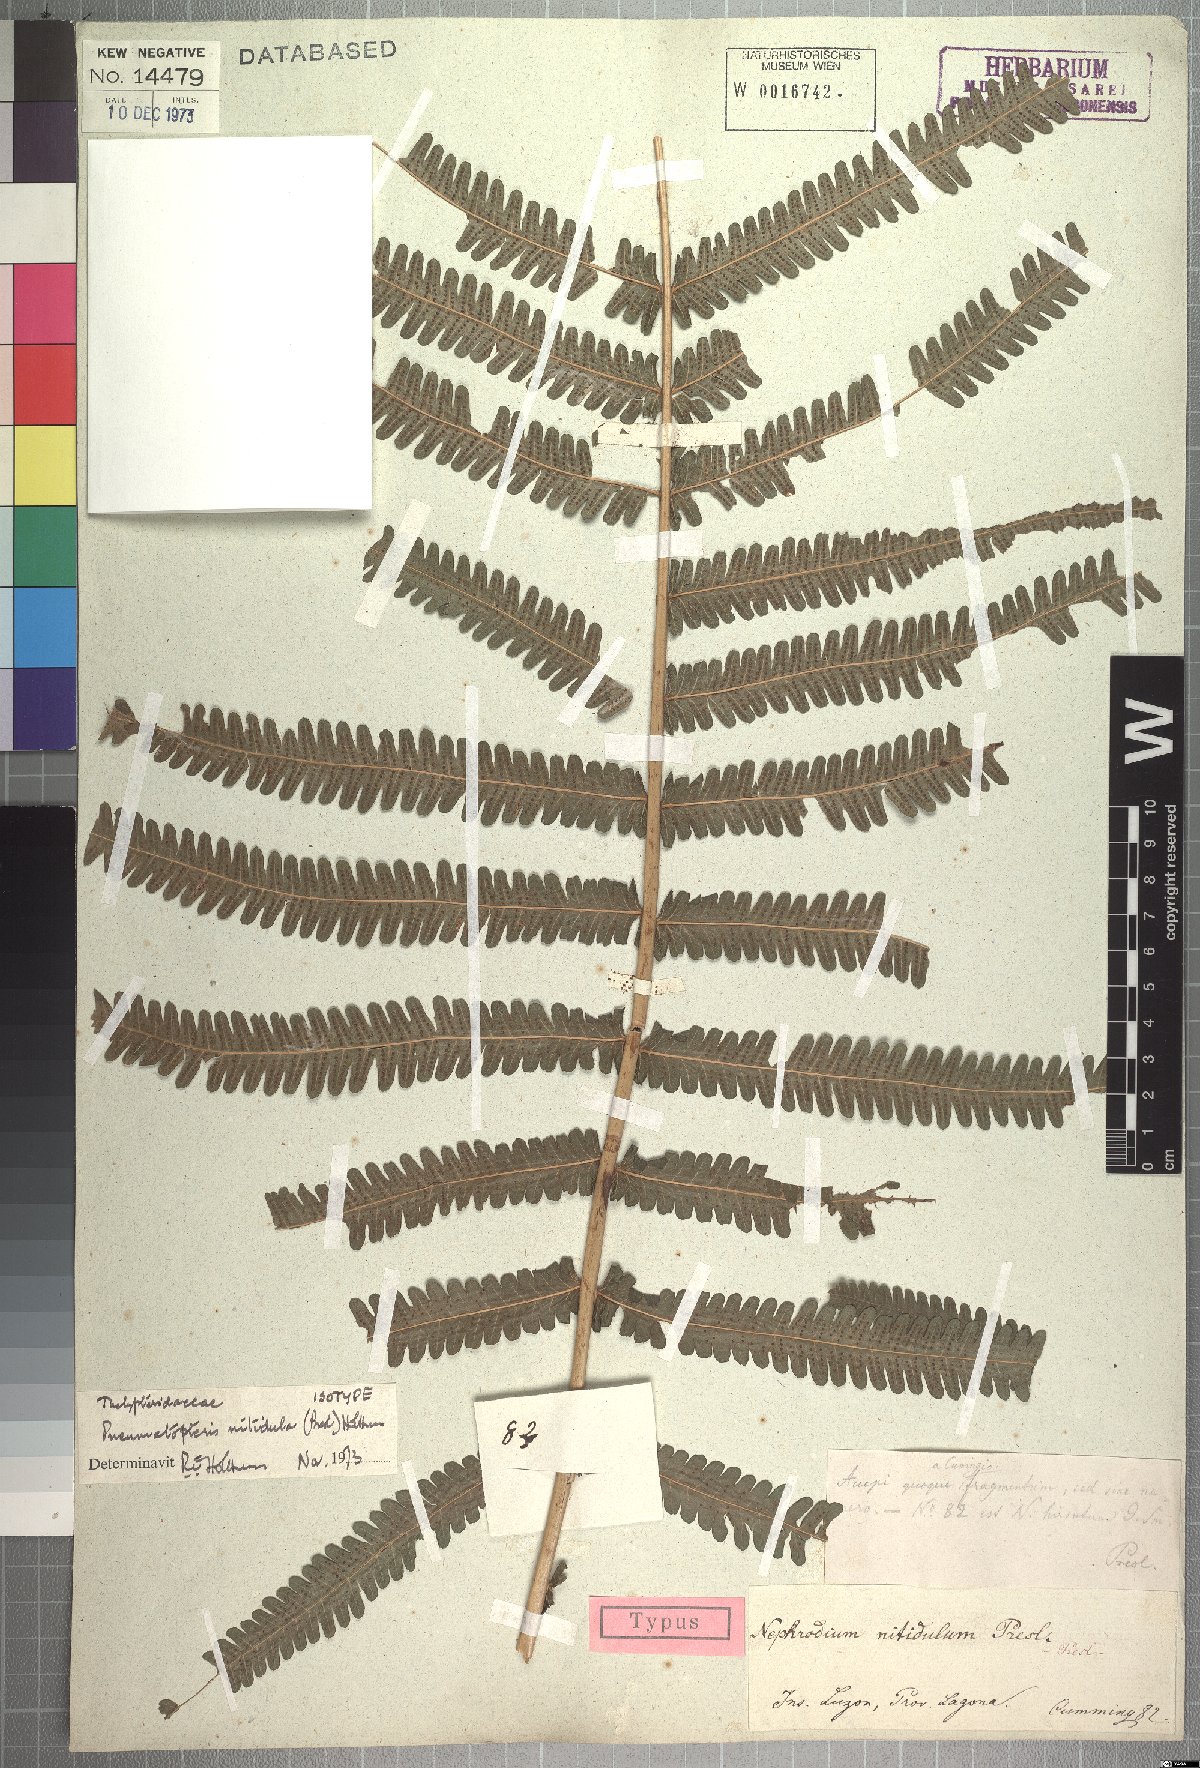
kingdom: Plantae
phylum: Tracheophyta
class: Polypodiopsida
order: Polypodiales
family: Thelypteridaceae
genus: Reholttumia
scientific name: Reholttumia nitidula
